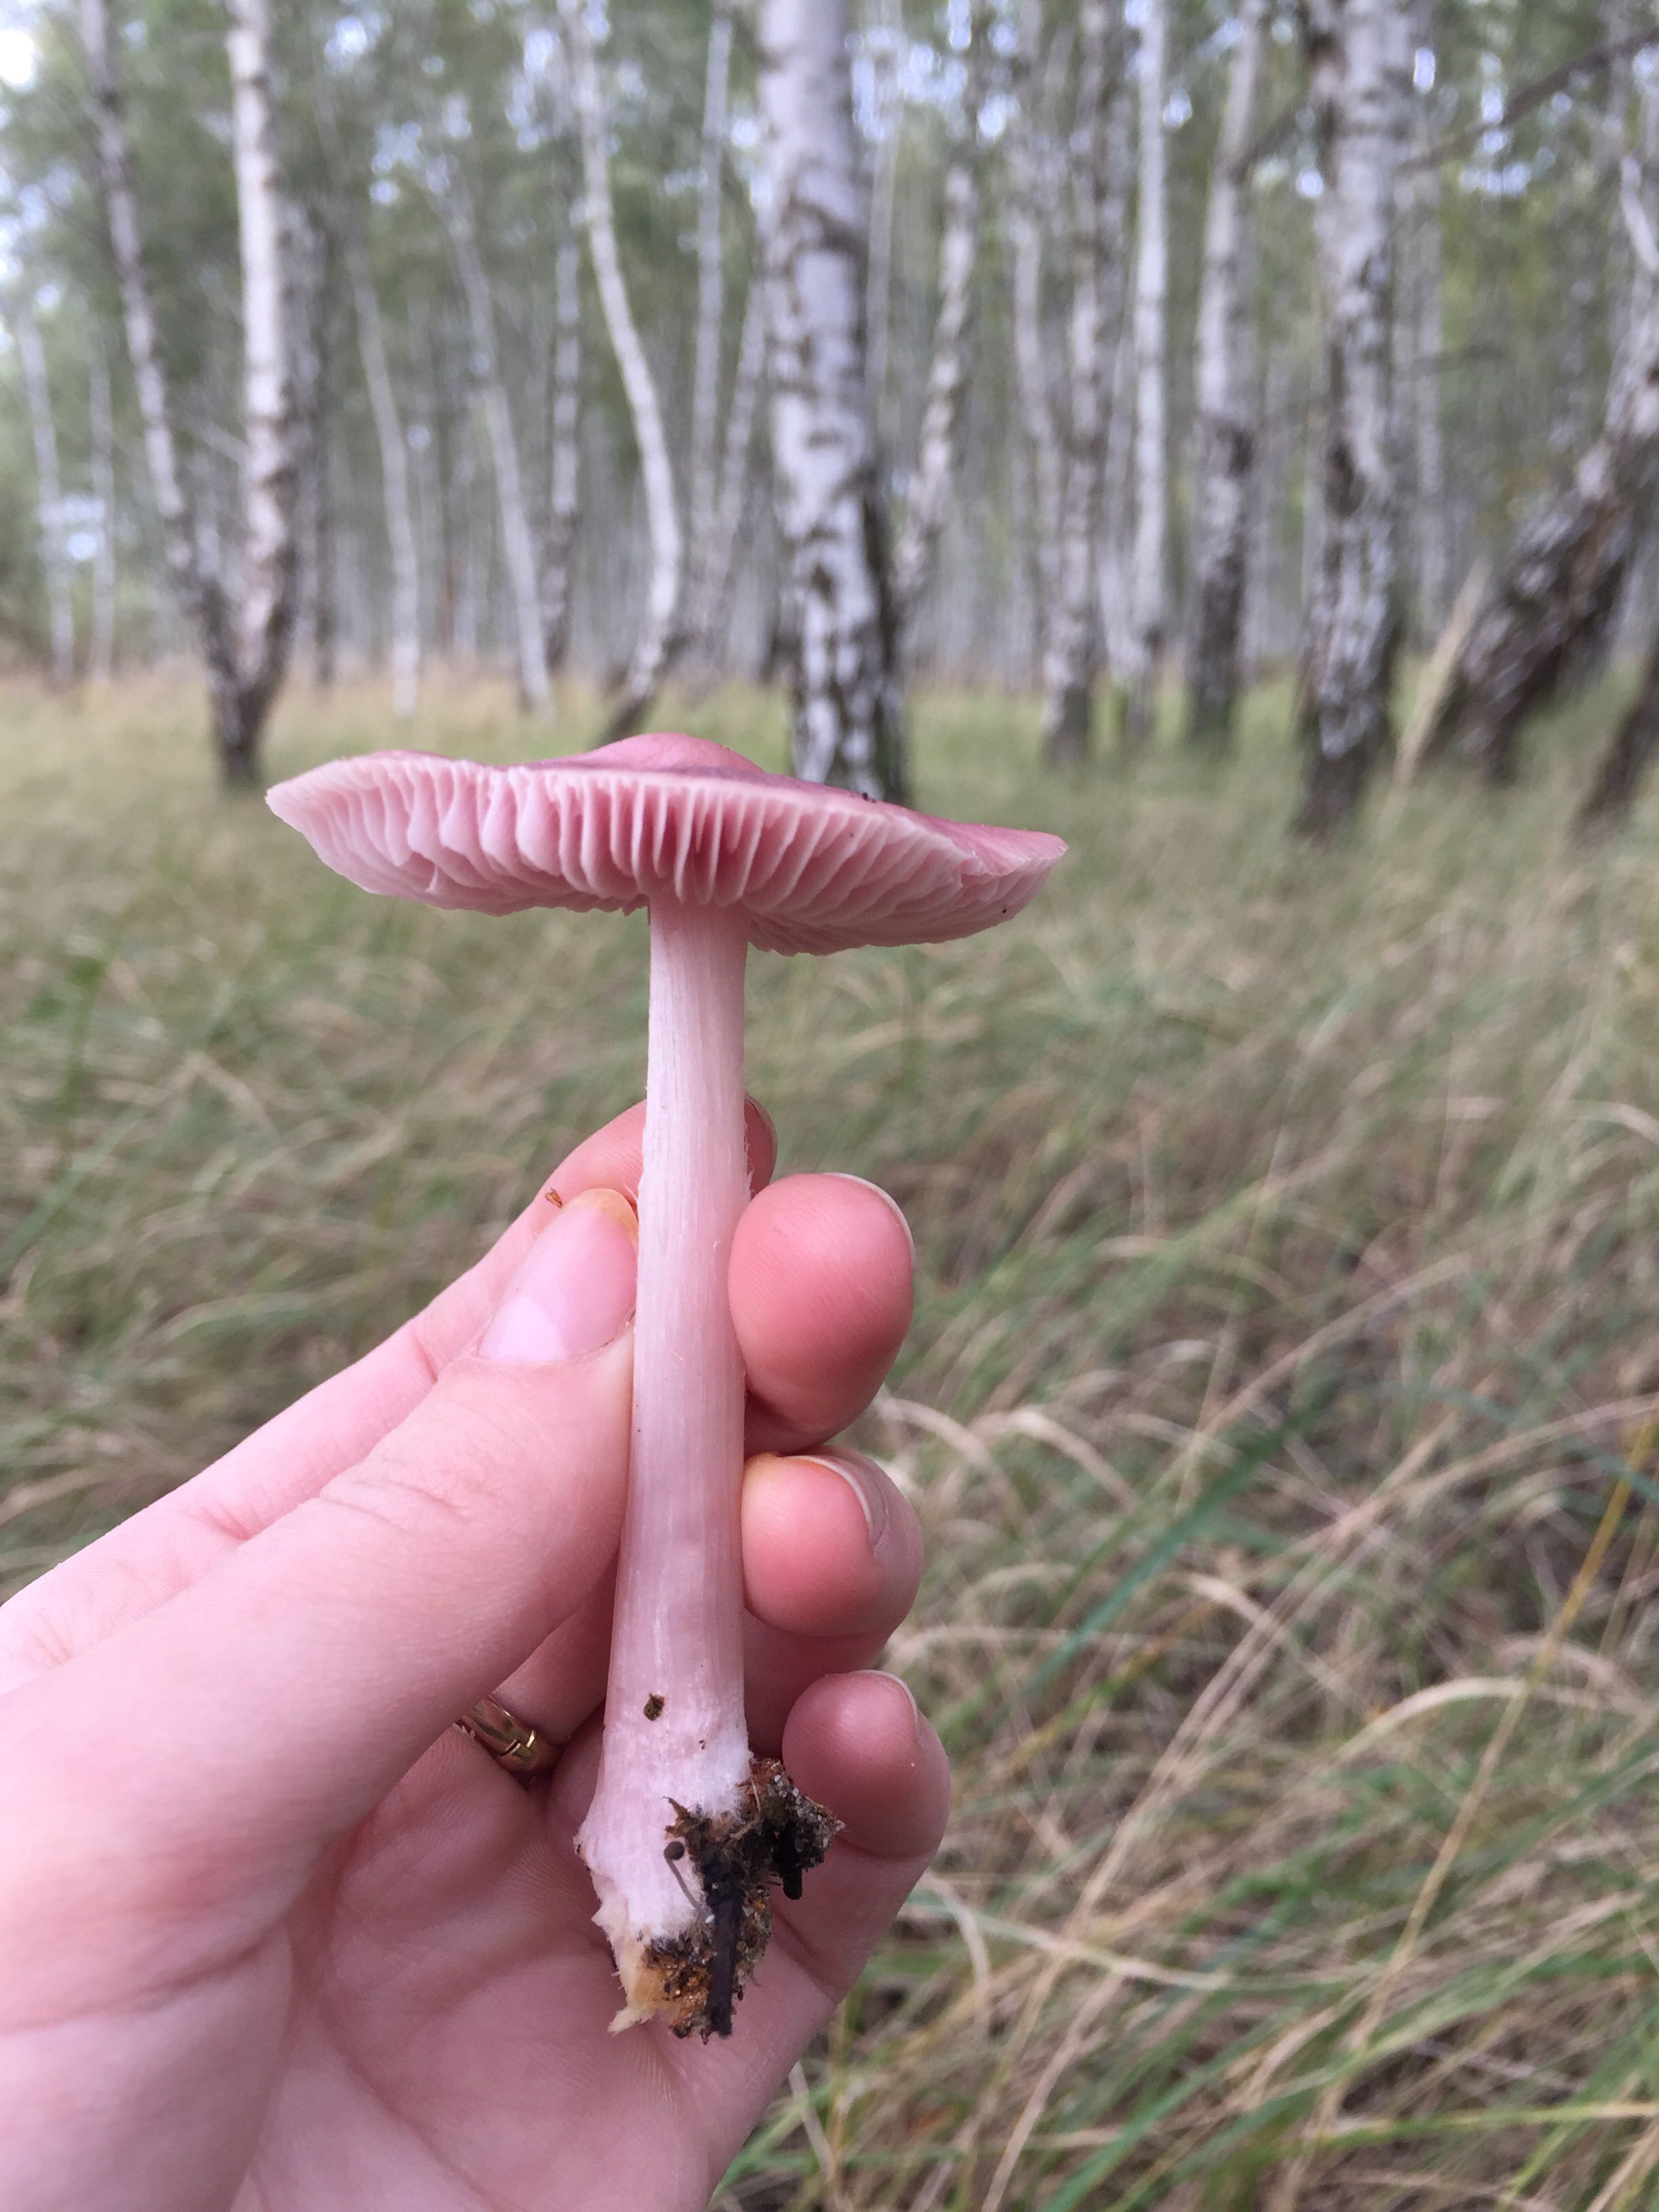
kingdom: Fungi
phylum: Basidiomycota
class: Agaricomycetes
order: Agaricales
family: Mycenaceae
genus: Mycena
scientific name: Mycena rosea
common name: rosa huesvamp
